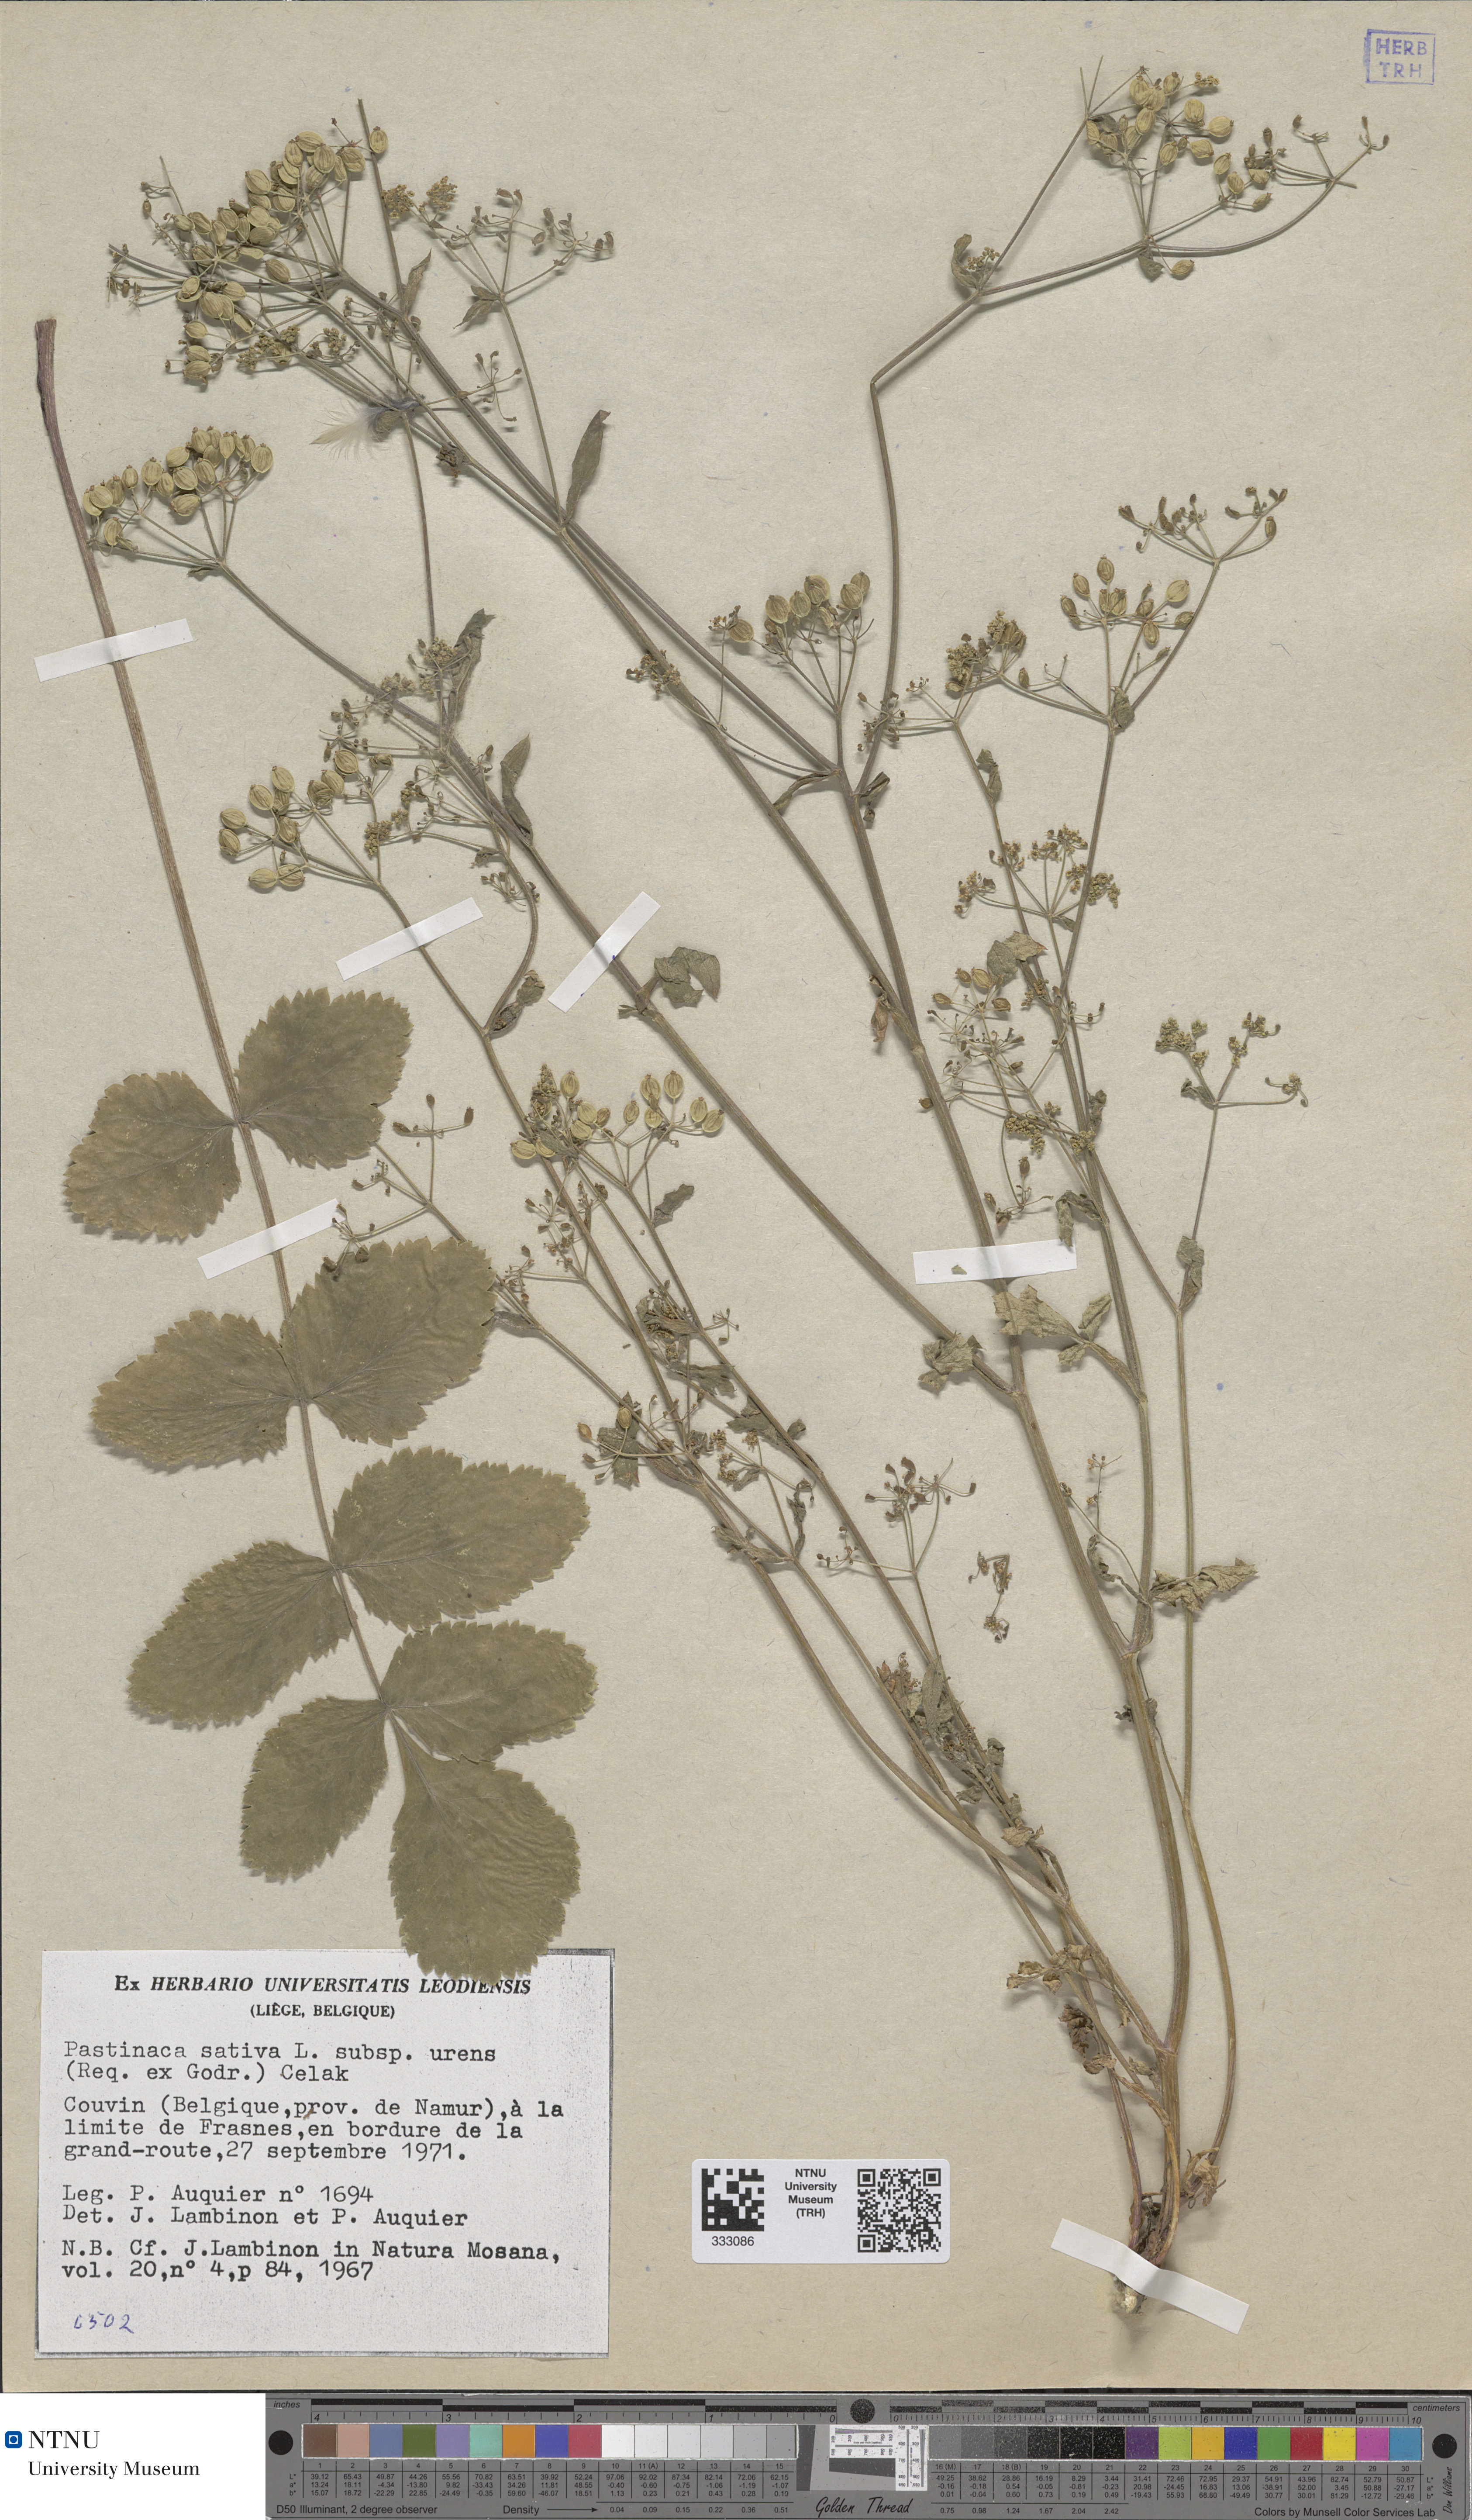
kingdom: Plantae
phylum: Tracheophyta
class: Magnoliopsida
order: Apiales
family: Apiaceae
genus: Pastinaca
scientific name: Pastinaca umbrosa
